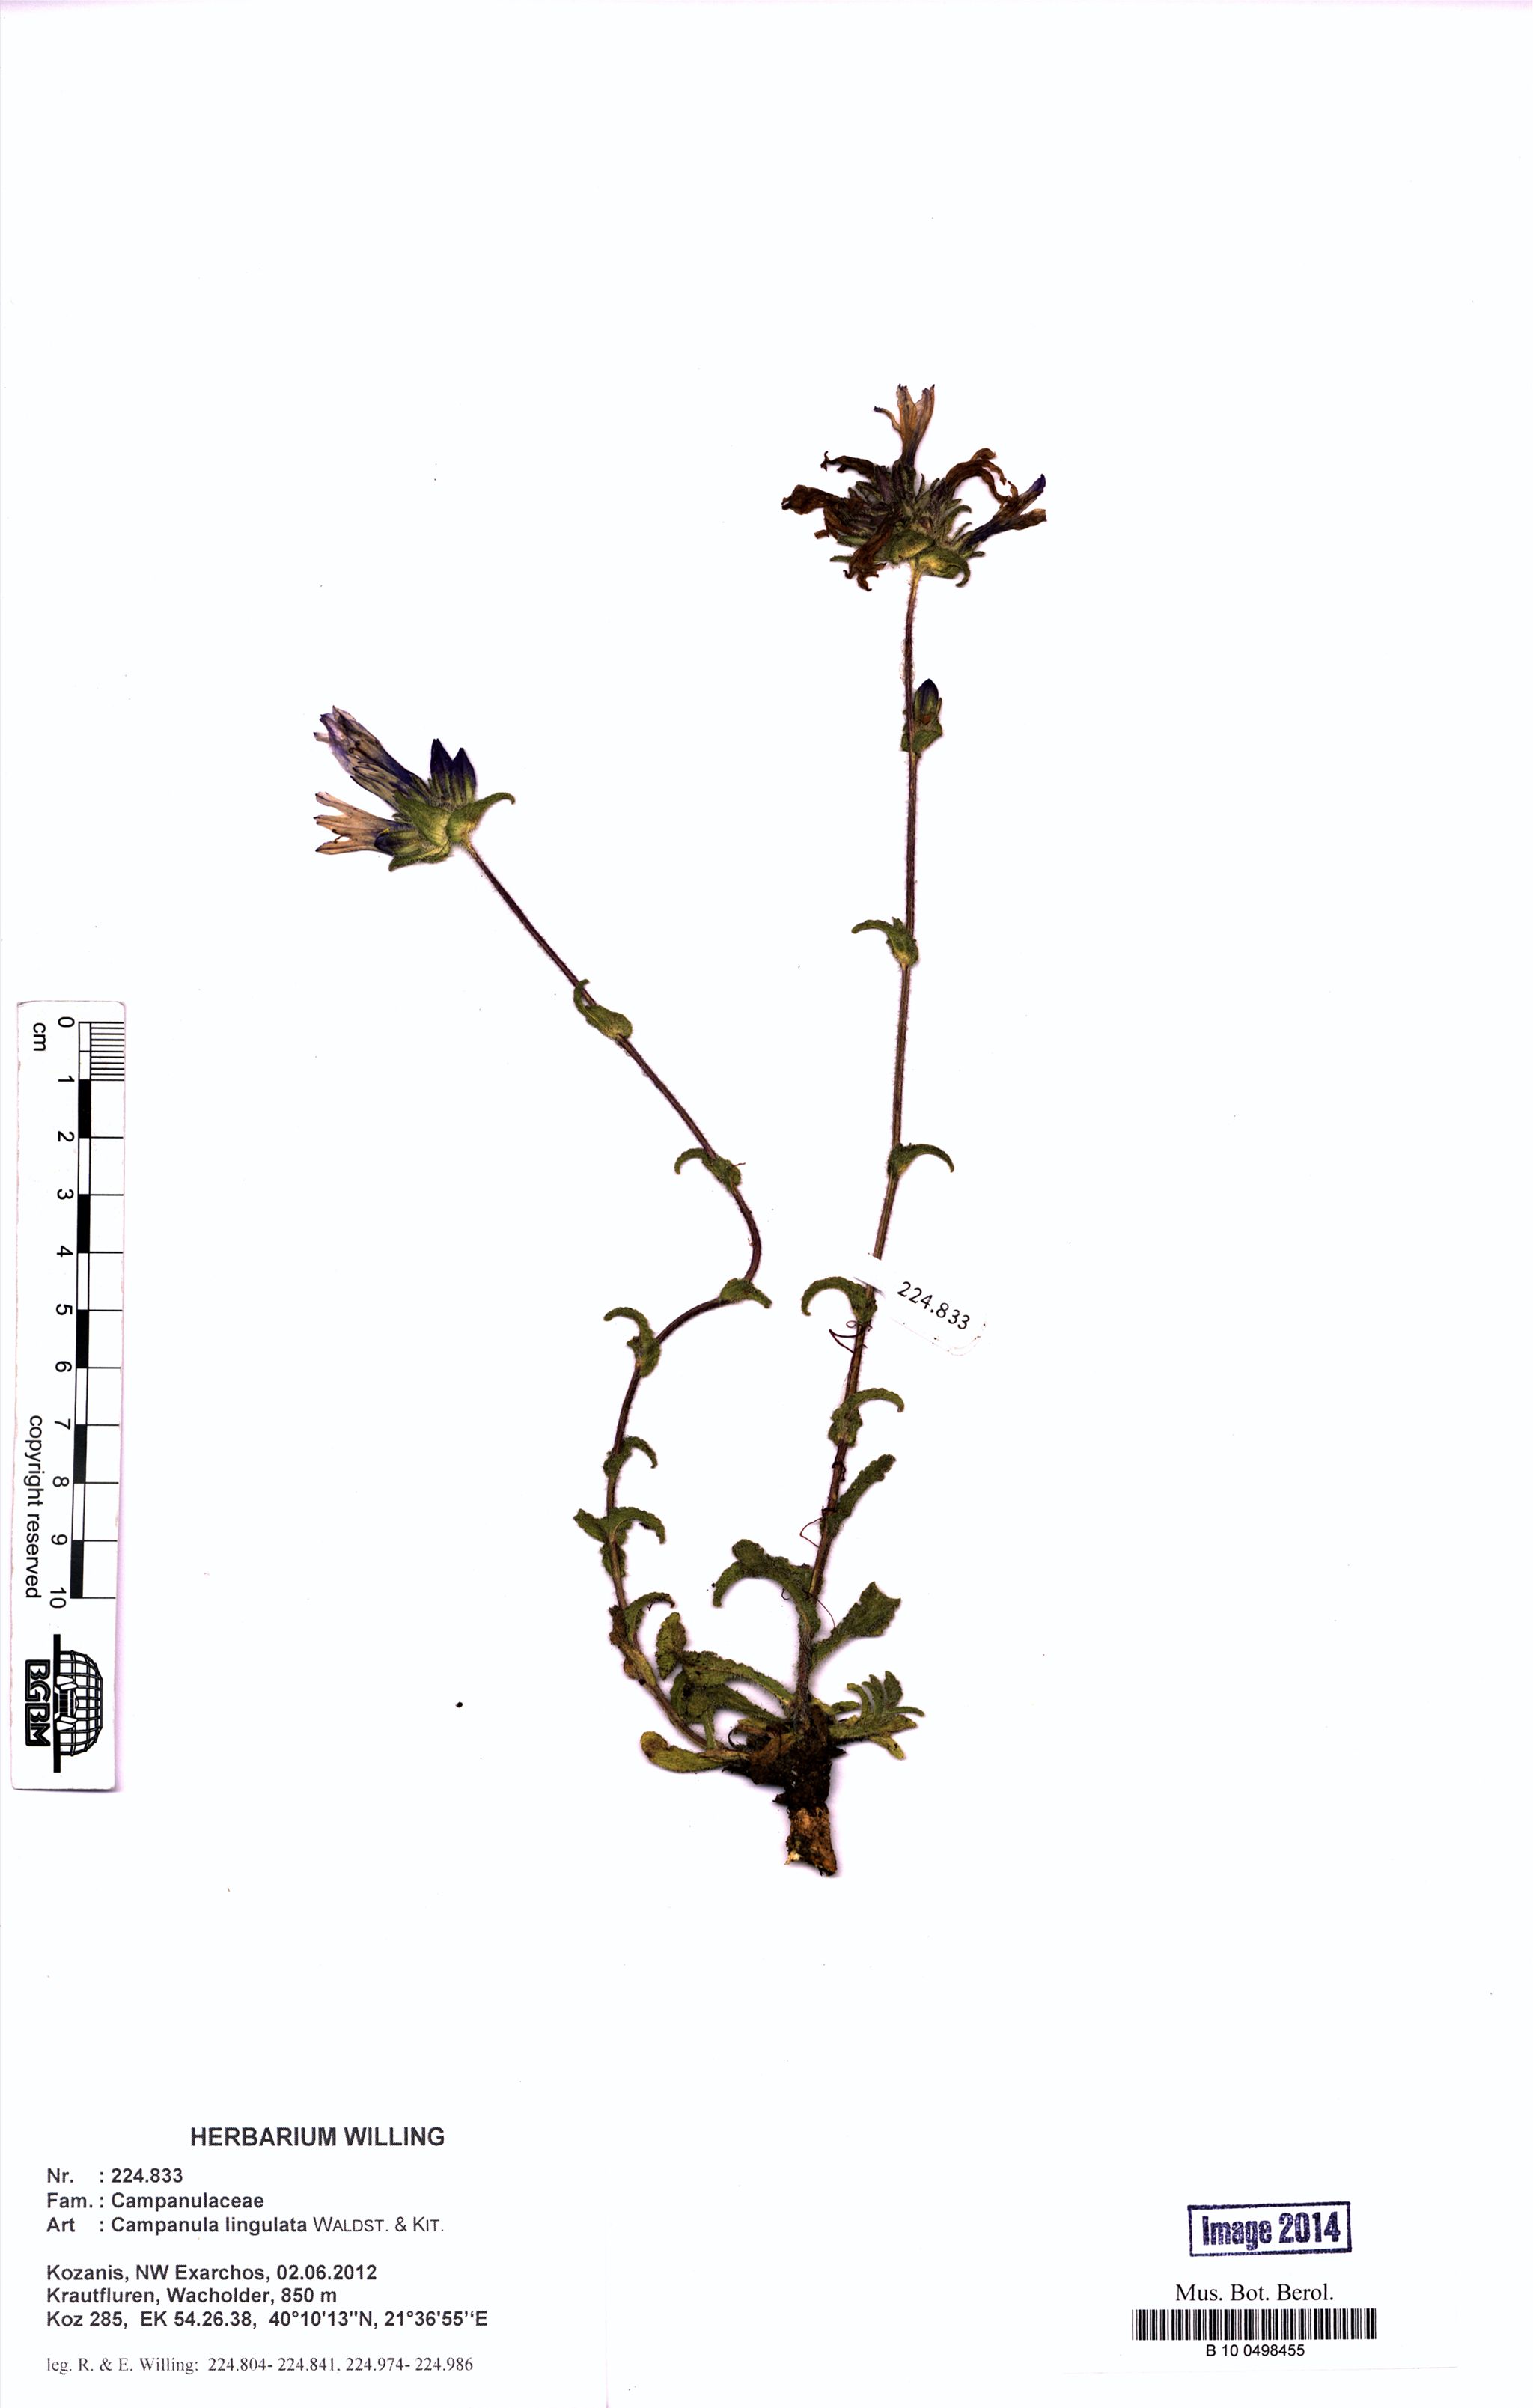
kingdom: Plantae
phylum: Tracheophyta
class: Magnoliopsida
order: Asterales
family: Campanulaceae
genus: Campanula
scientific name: Campanula lingulata
